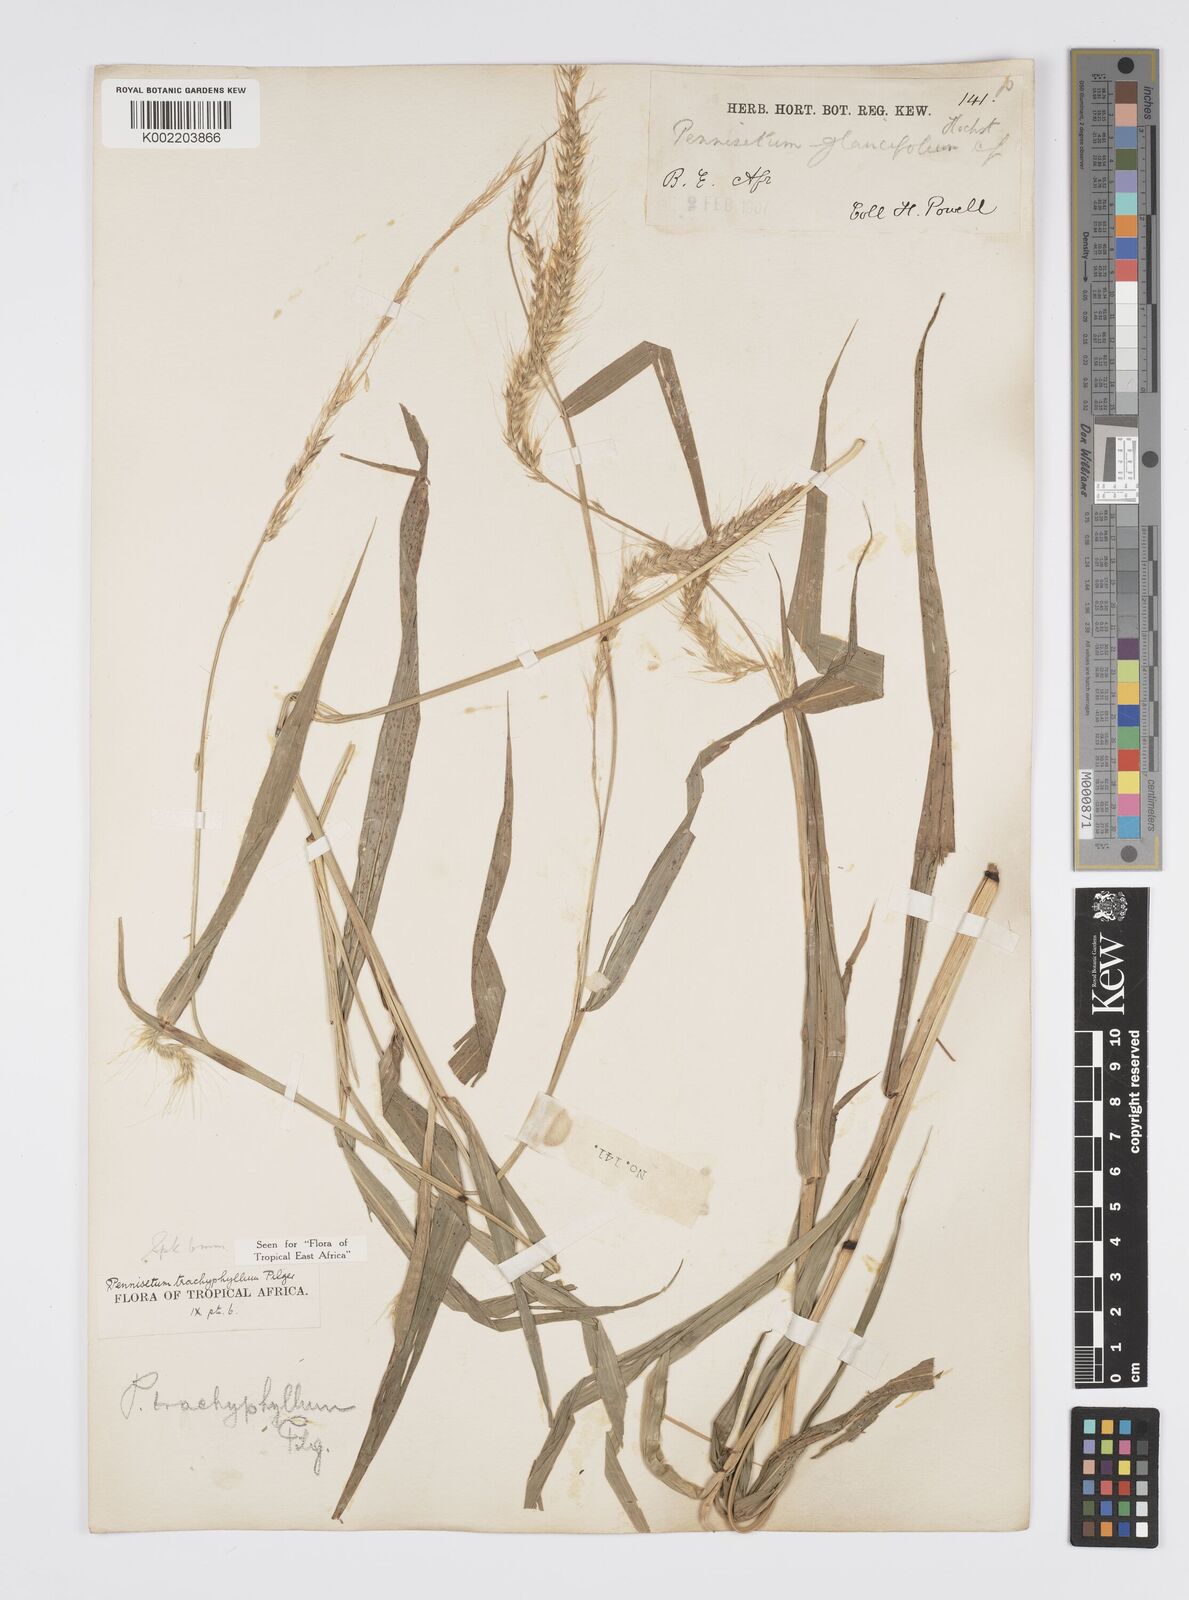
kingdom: Plantae
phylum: Tracheophyta
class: Liliopsida
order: Poales
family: Poaceae
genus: Cenchrus
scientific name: Cenchrus trachyphyllus
